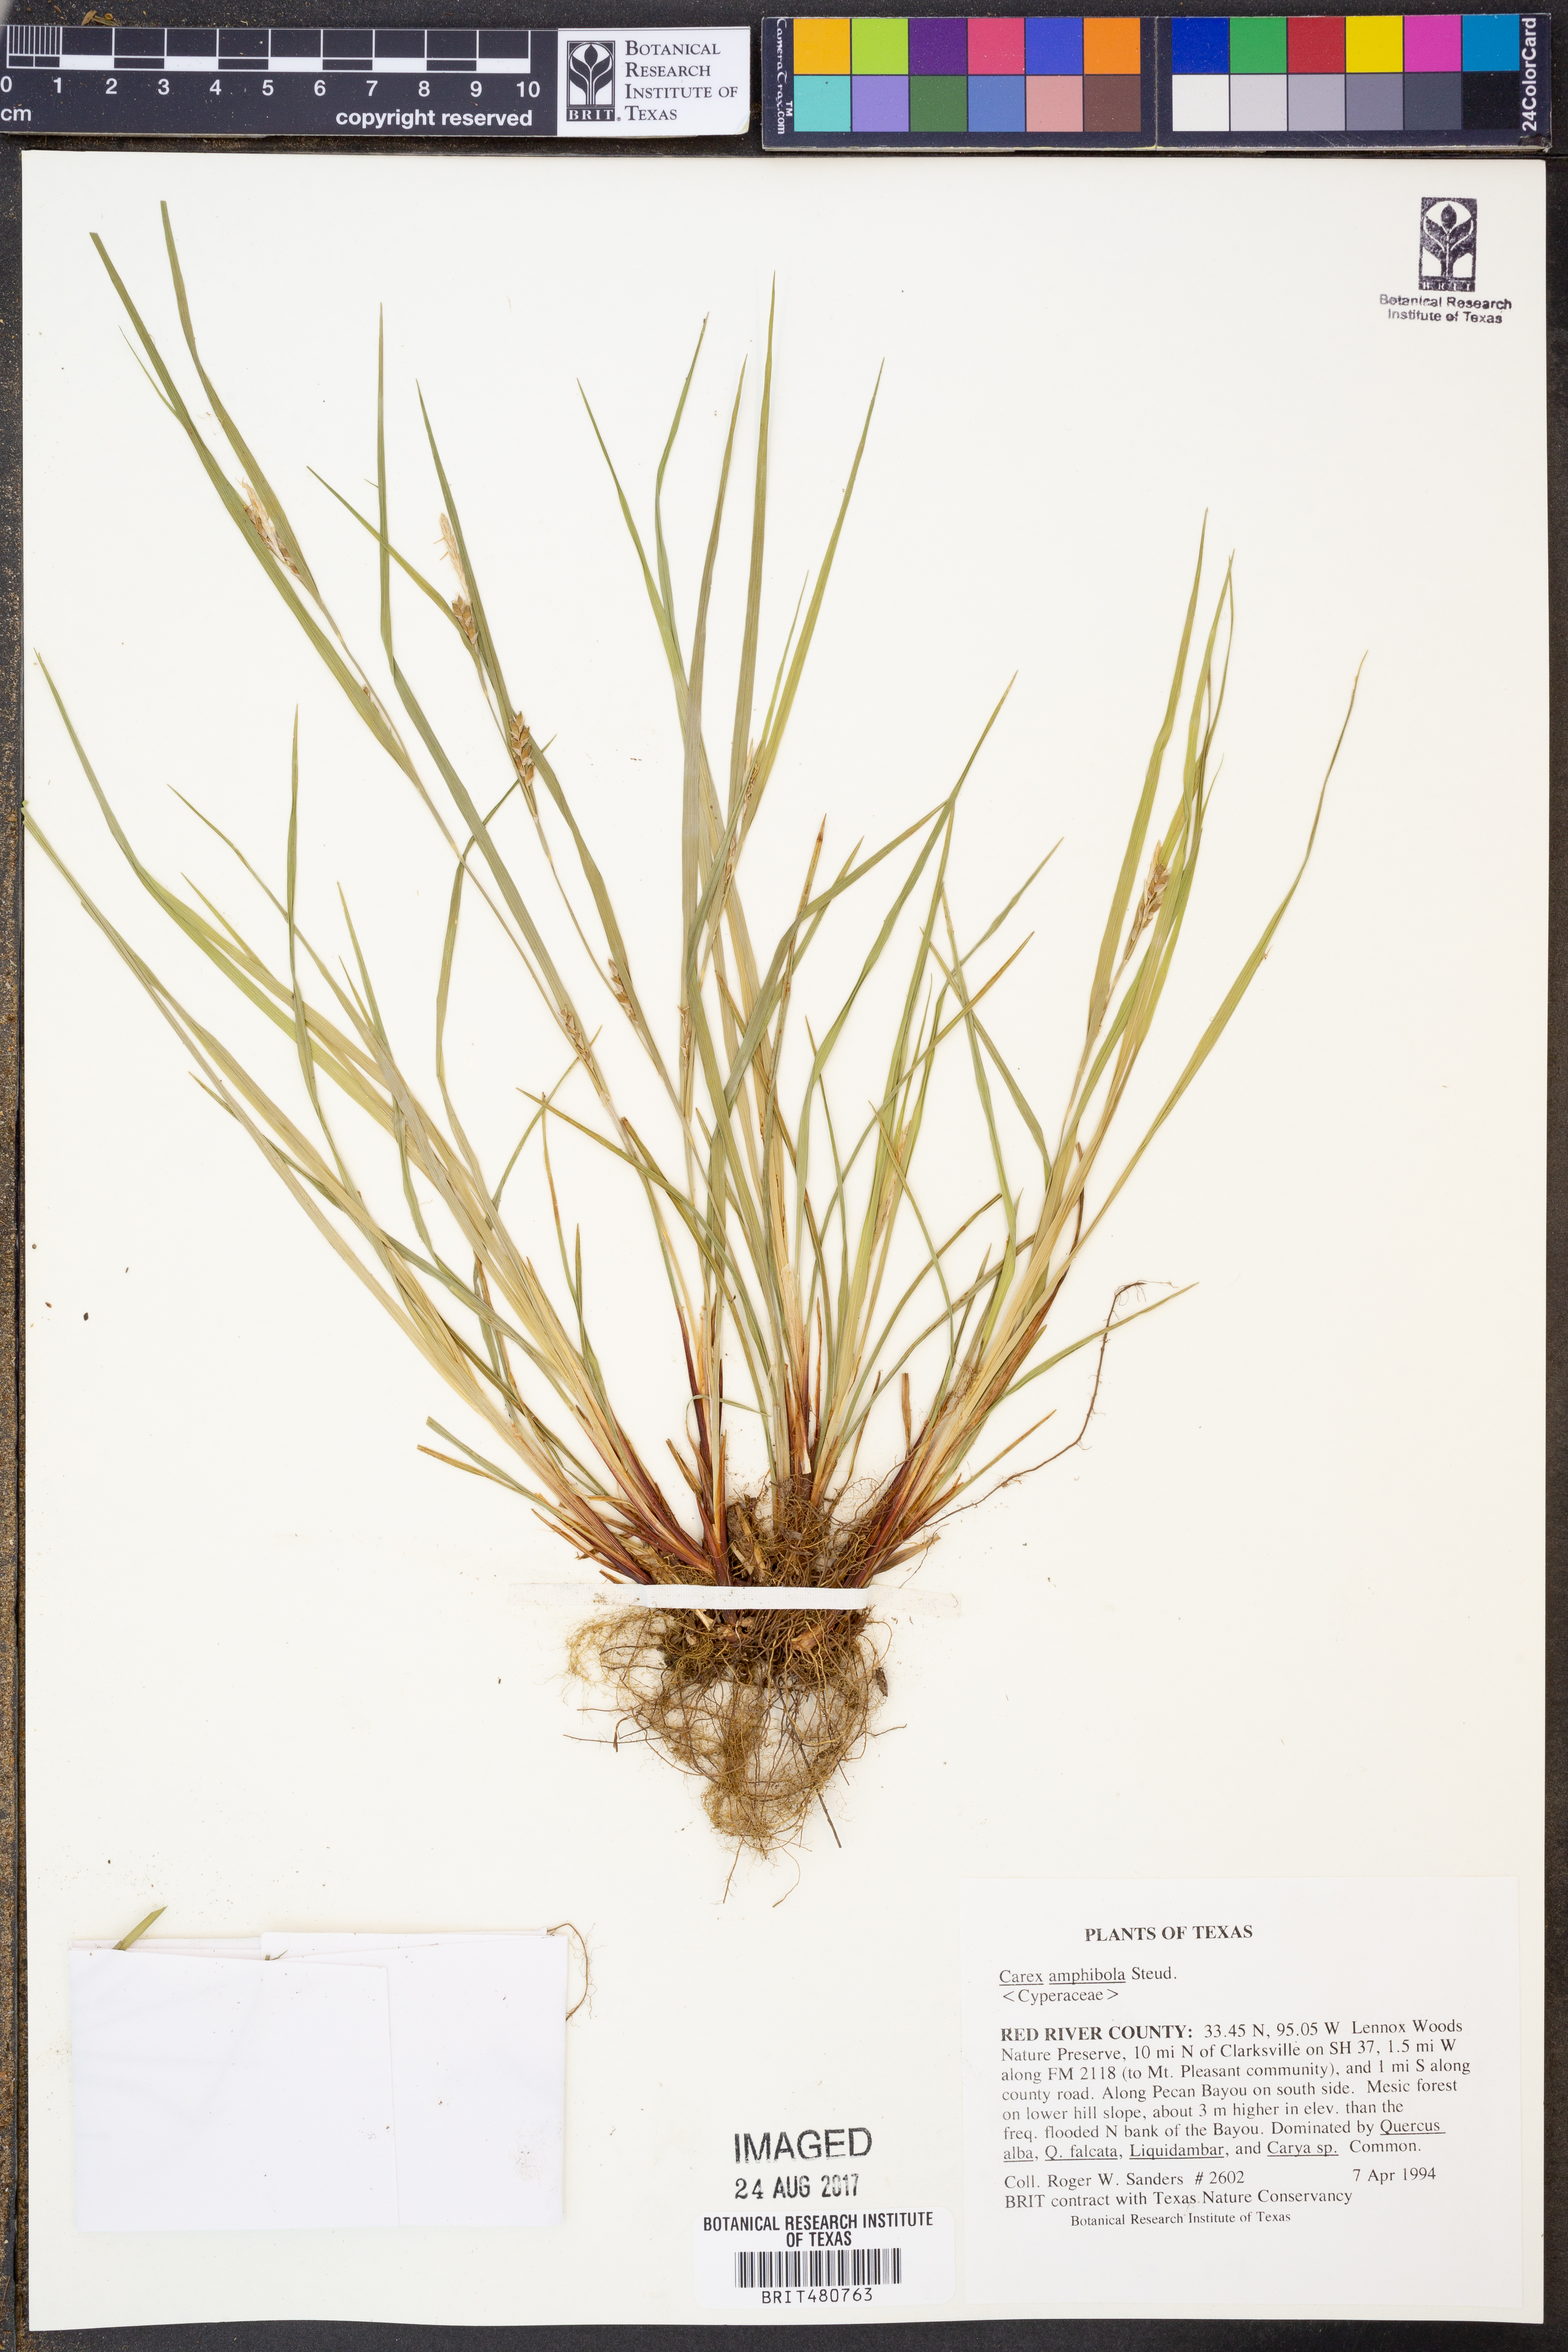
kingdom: Plantae
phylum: Tracheophyta
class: Liliopsida
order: Poales
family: Cyperaceae
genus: Carex
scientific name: Carex amphibola
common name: Amphibious sedge
